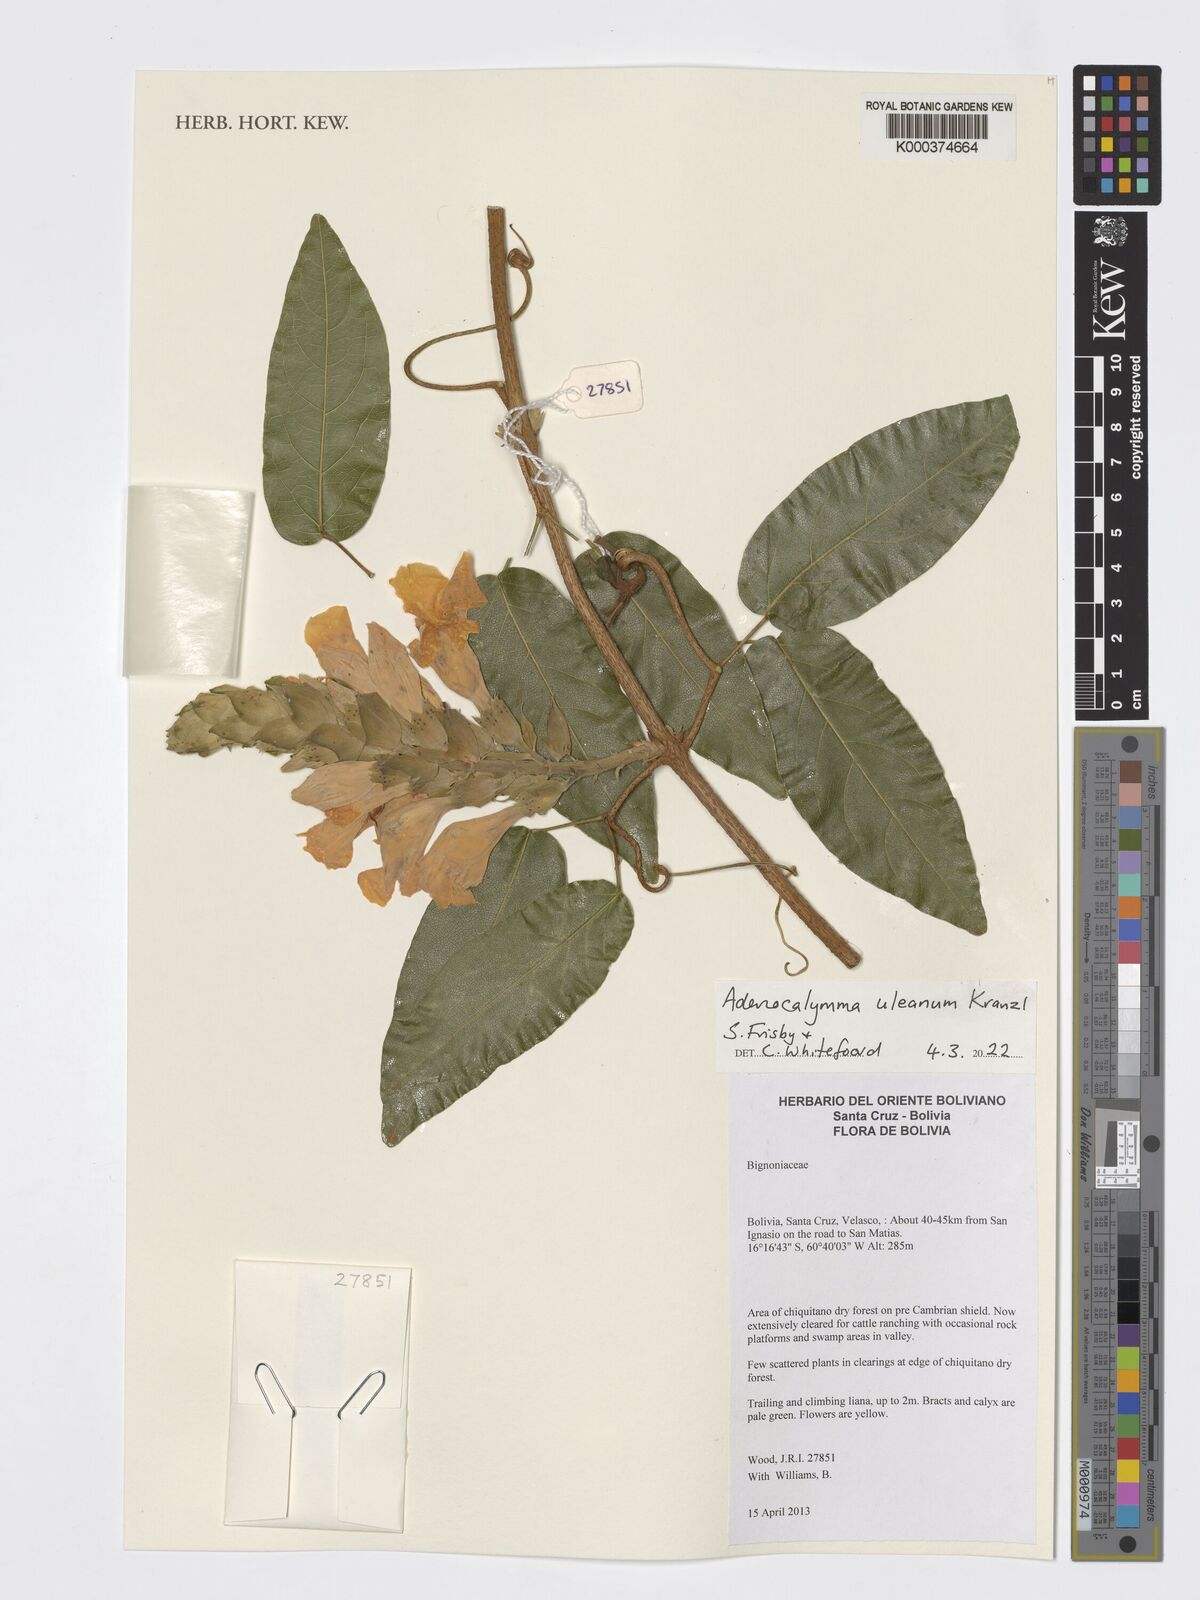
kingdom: Plantae
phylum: Tracheophyta
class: Magnoliopsida
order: Lamiales
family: Bignoniaceae
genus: Adenocalymma
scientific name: Adenocalymma uleanum
